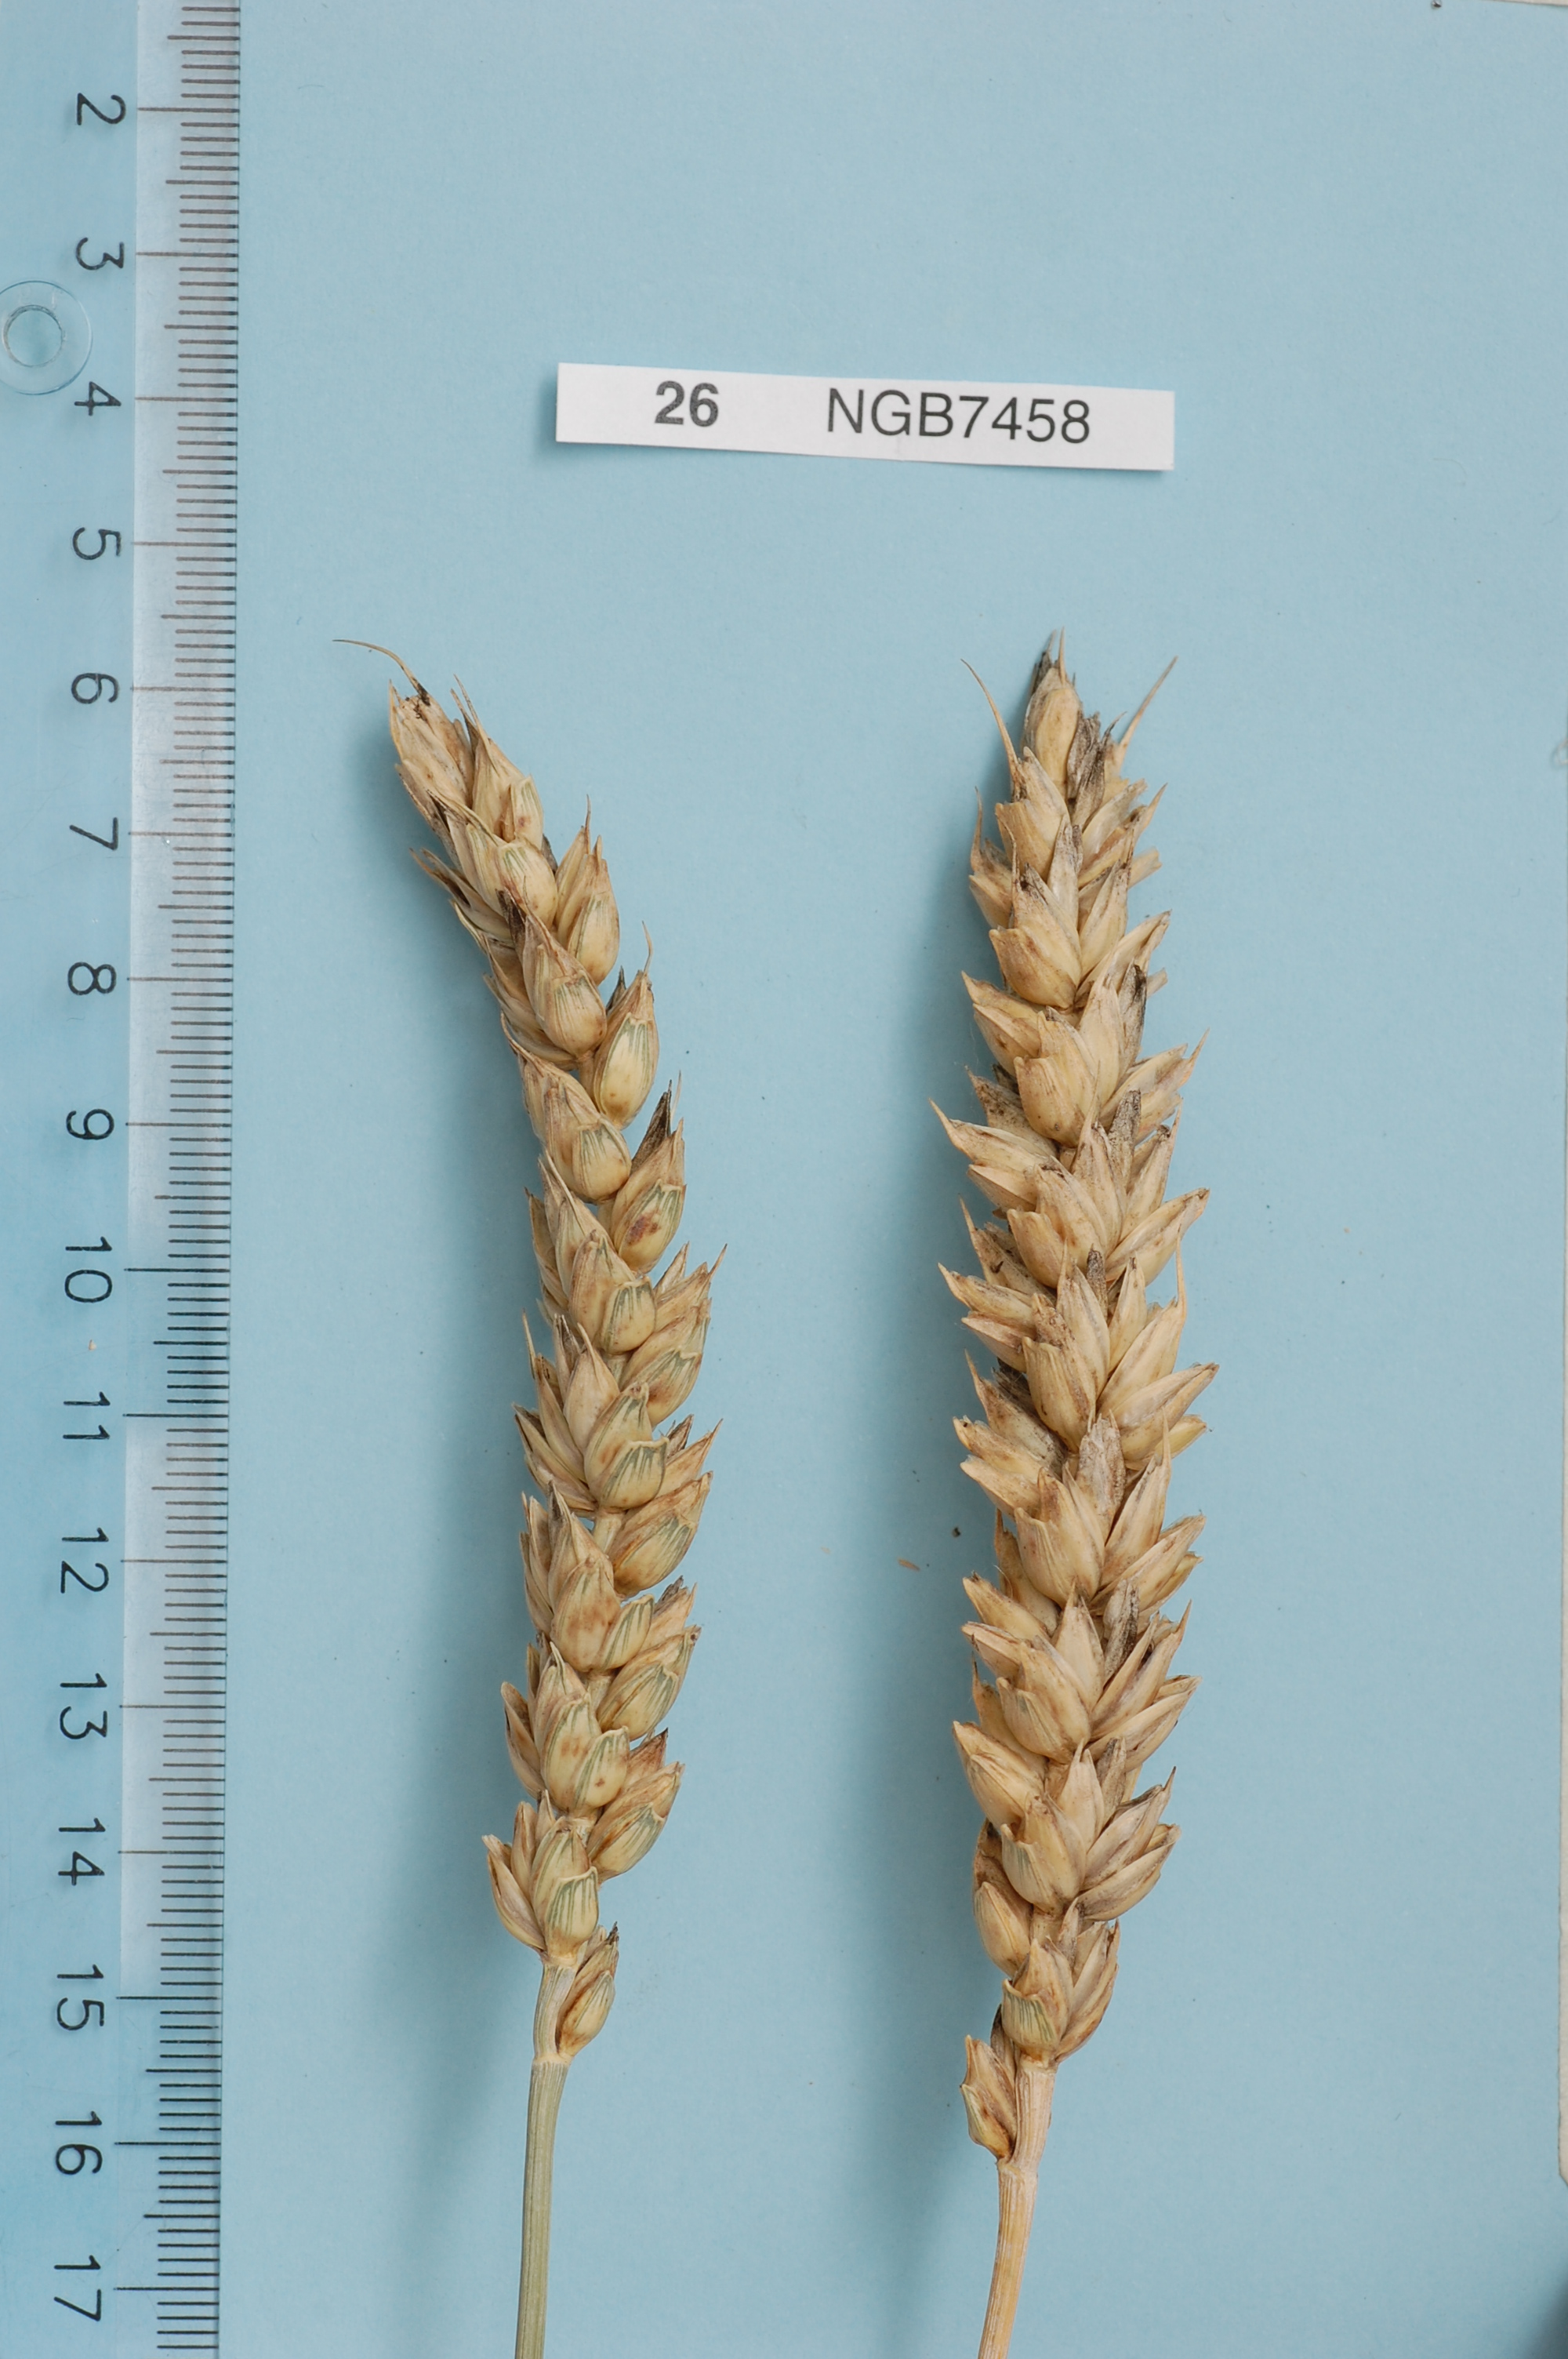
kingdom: Plantae
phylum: Tracheophyta
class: Liliopsida
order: Poales
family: Poaceae
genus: Triticum
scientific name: Triticum aestivum
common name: Common wheat
